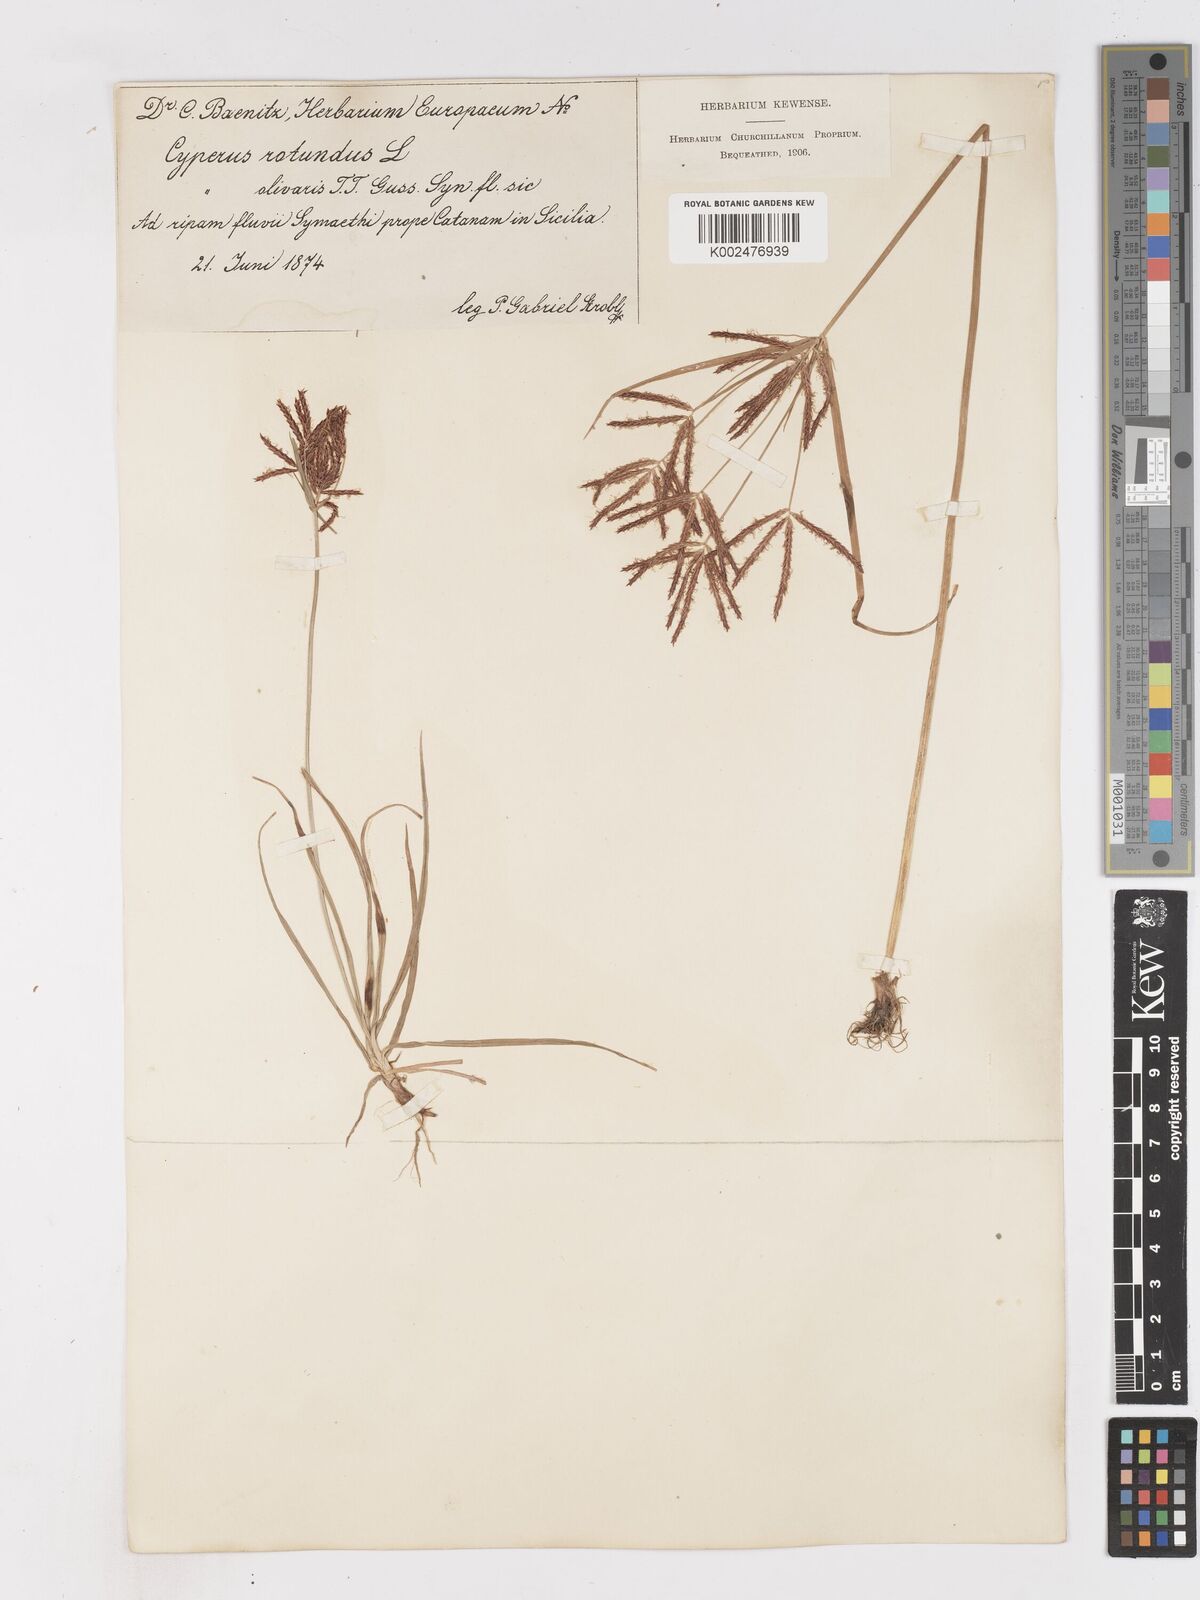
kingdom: Plantae
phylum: Tracheophyta
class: Liliopsida
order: Poales
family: Cyperaceae
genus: Cyperus
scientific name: Cyperus rotundus
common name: Nutgrass
